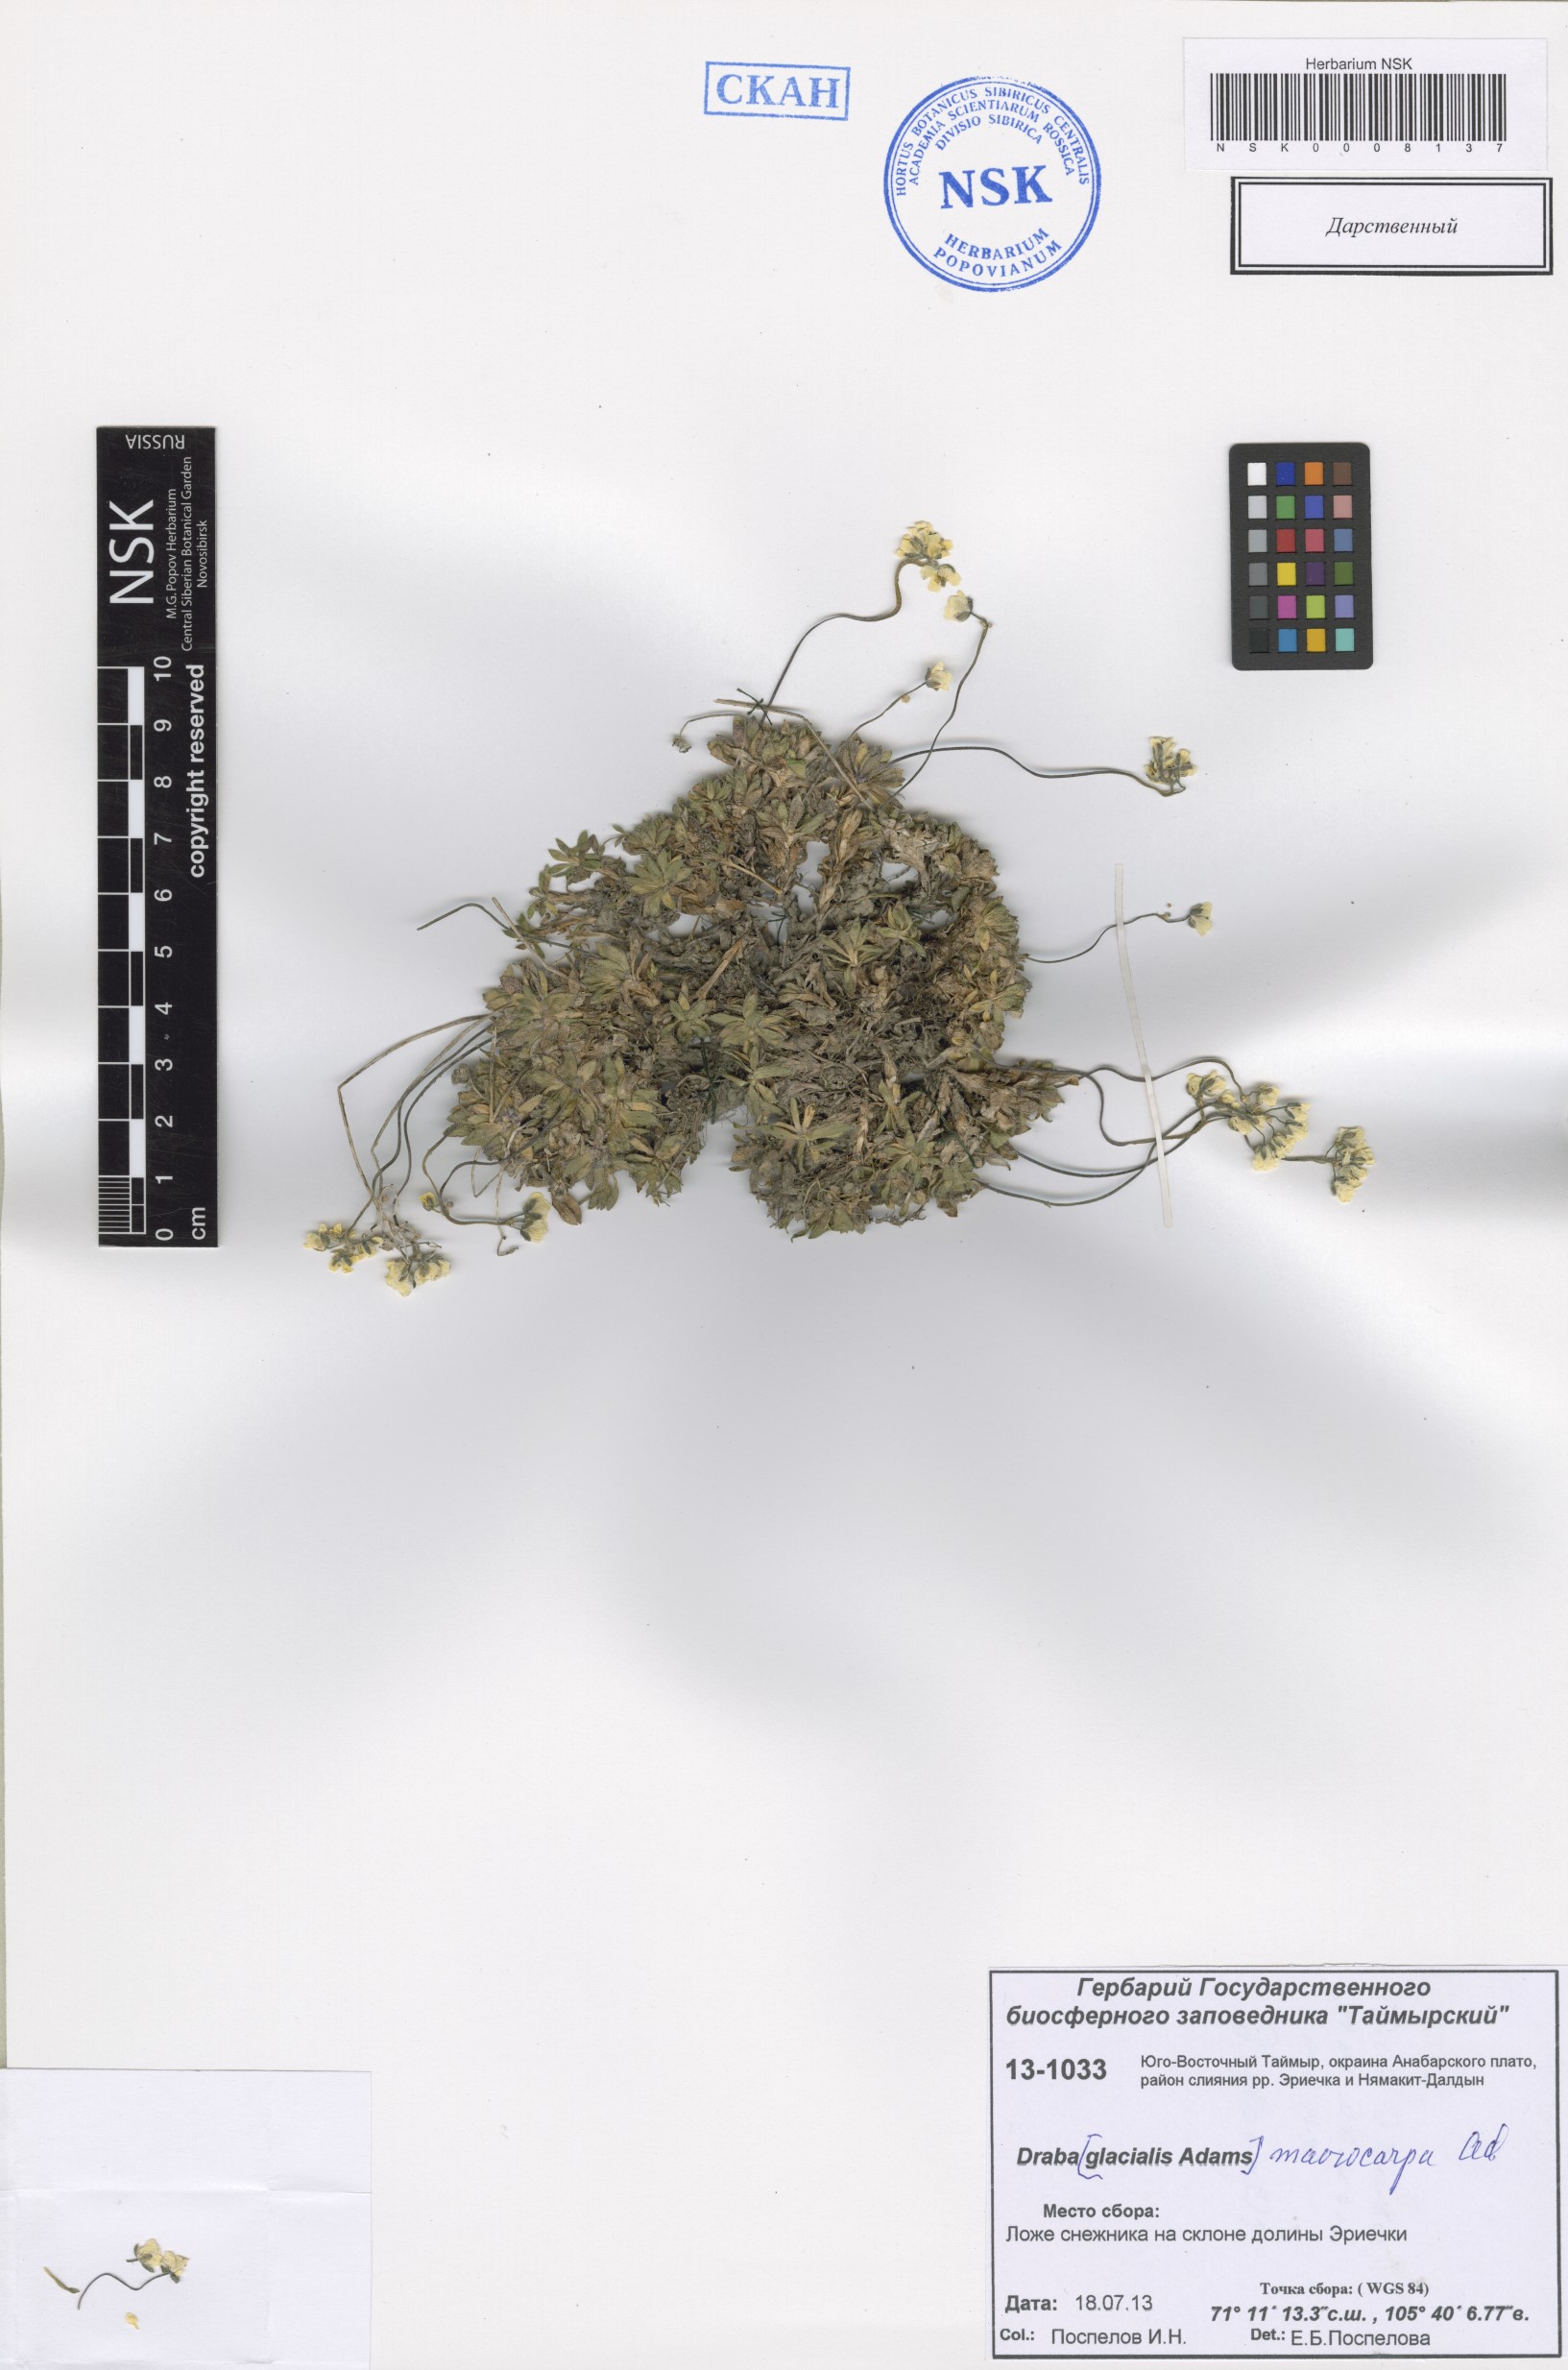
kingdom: Plantae
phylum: Tracheophyta
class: Magnoliopsida
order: Brassicales
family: Brassicaceae
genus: Draba
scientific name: Draba macrocarpa
